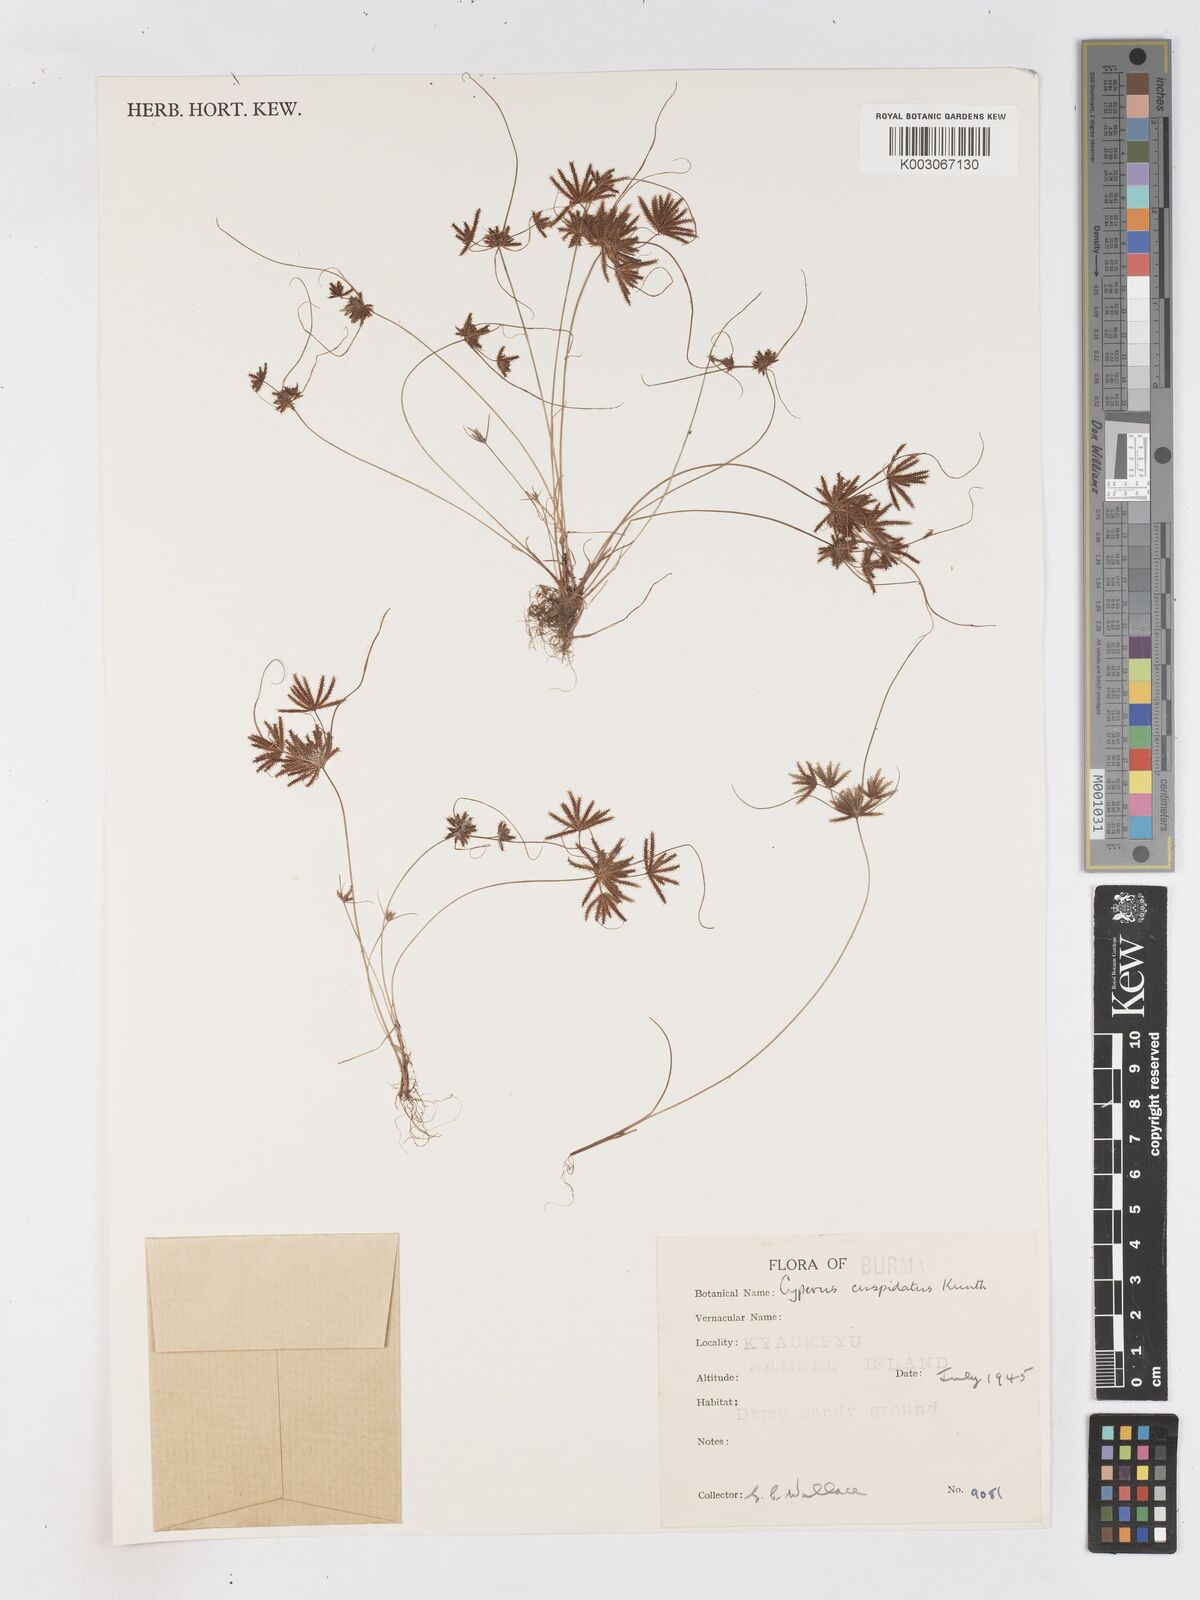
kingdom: Plantae
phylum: Tracheophyta
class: Liliopsida
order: Poales
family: Cyperaceae
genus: Cyperus
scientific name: Cyperus cuspidatus
